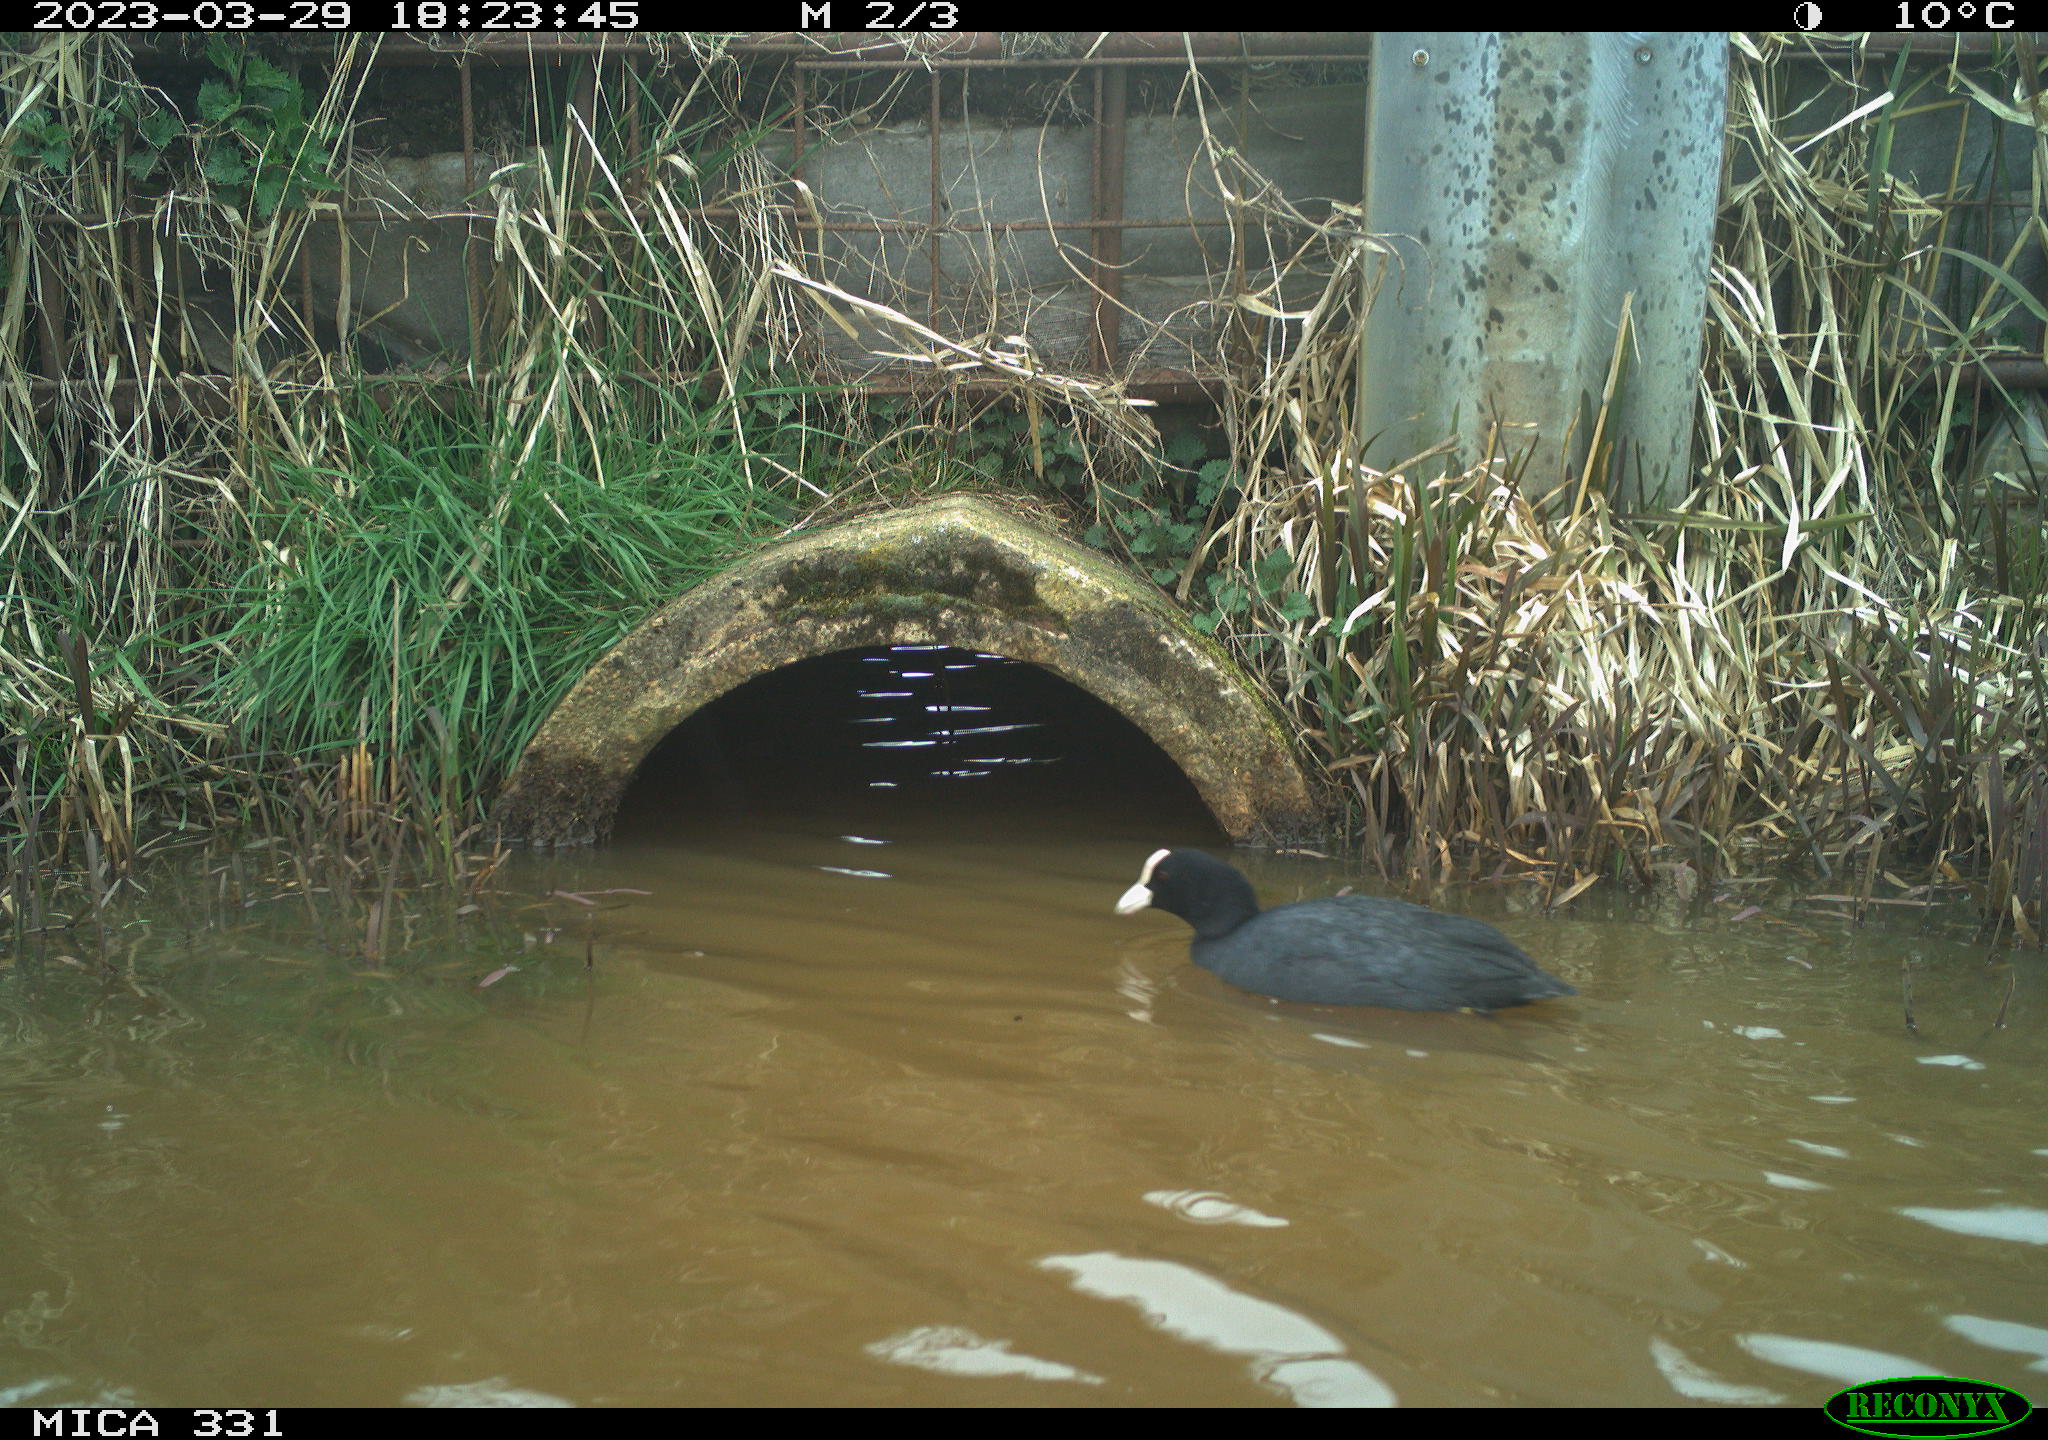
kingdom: Animalia
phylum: Chordata
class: Aves
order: Gruiformes
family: Rallidae
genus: Fulica
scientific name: Fulica atra
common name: Eurasian coot
